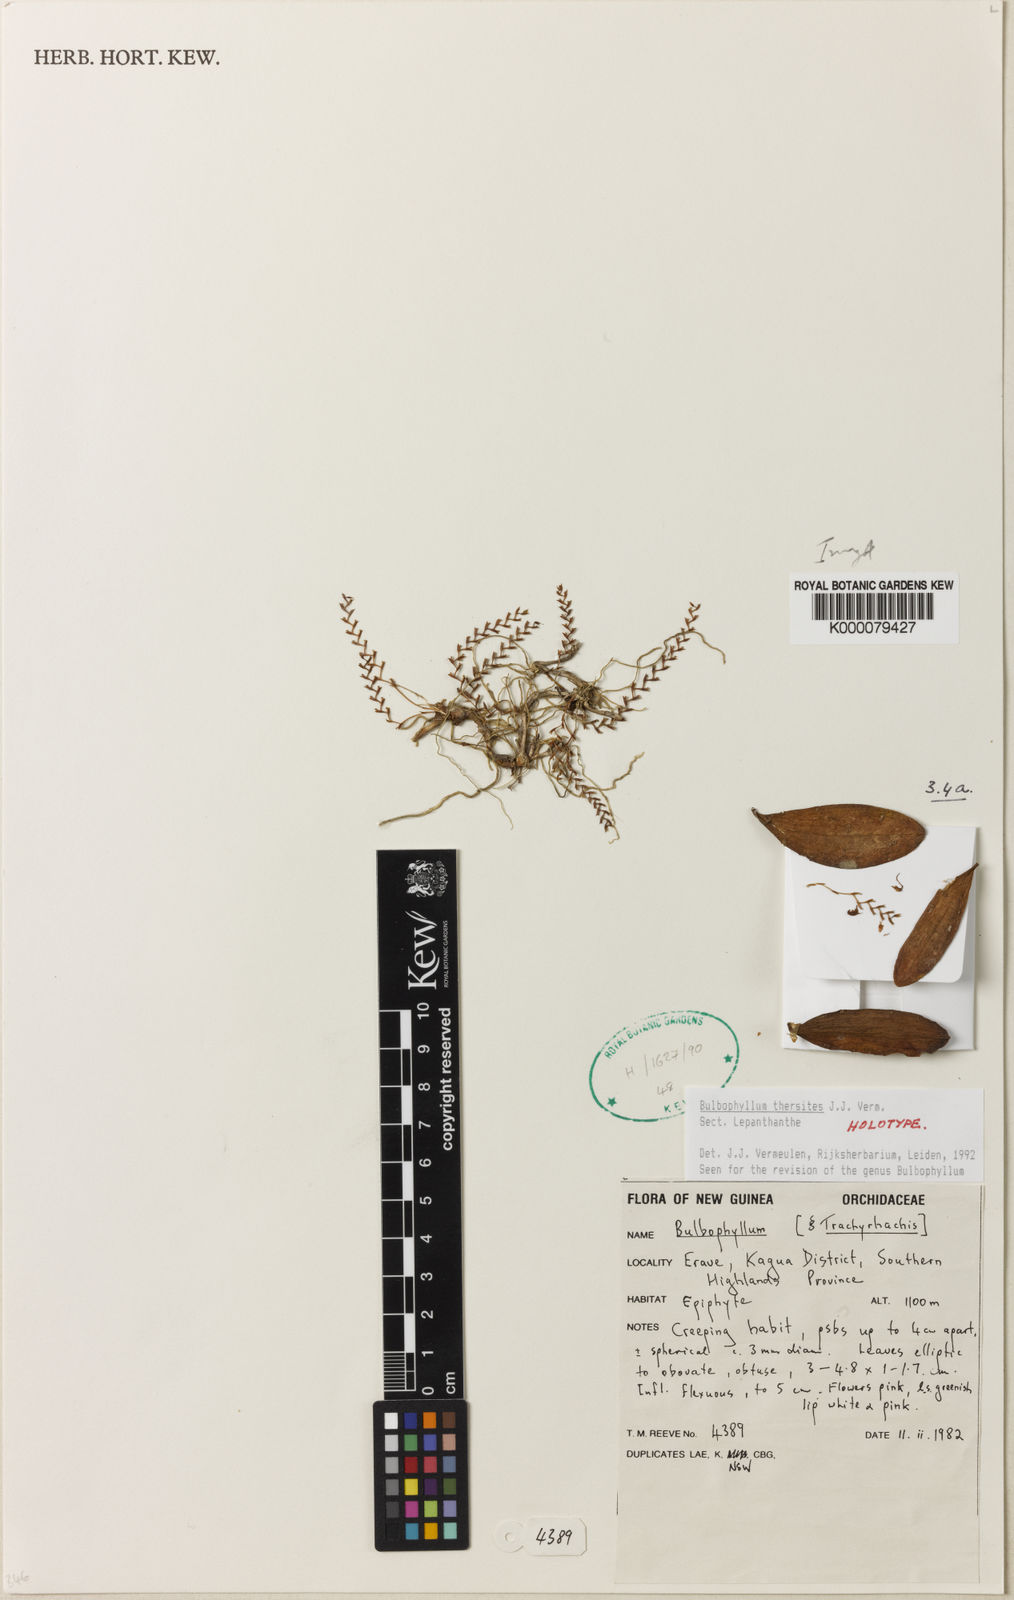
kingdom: Plantae
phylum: Tracheophyta
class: Liliopsida
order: Asparagales
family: Orchidaceae
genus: Bulbophyllum
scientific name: Bulbophyllum
